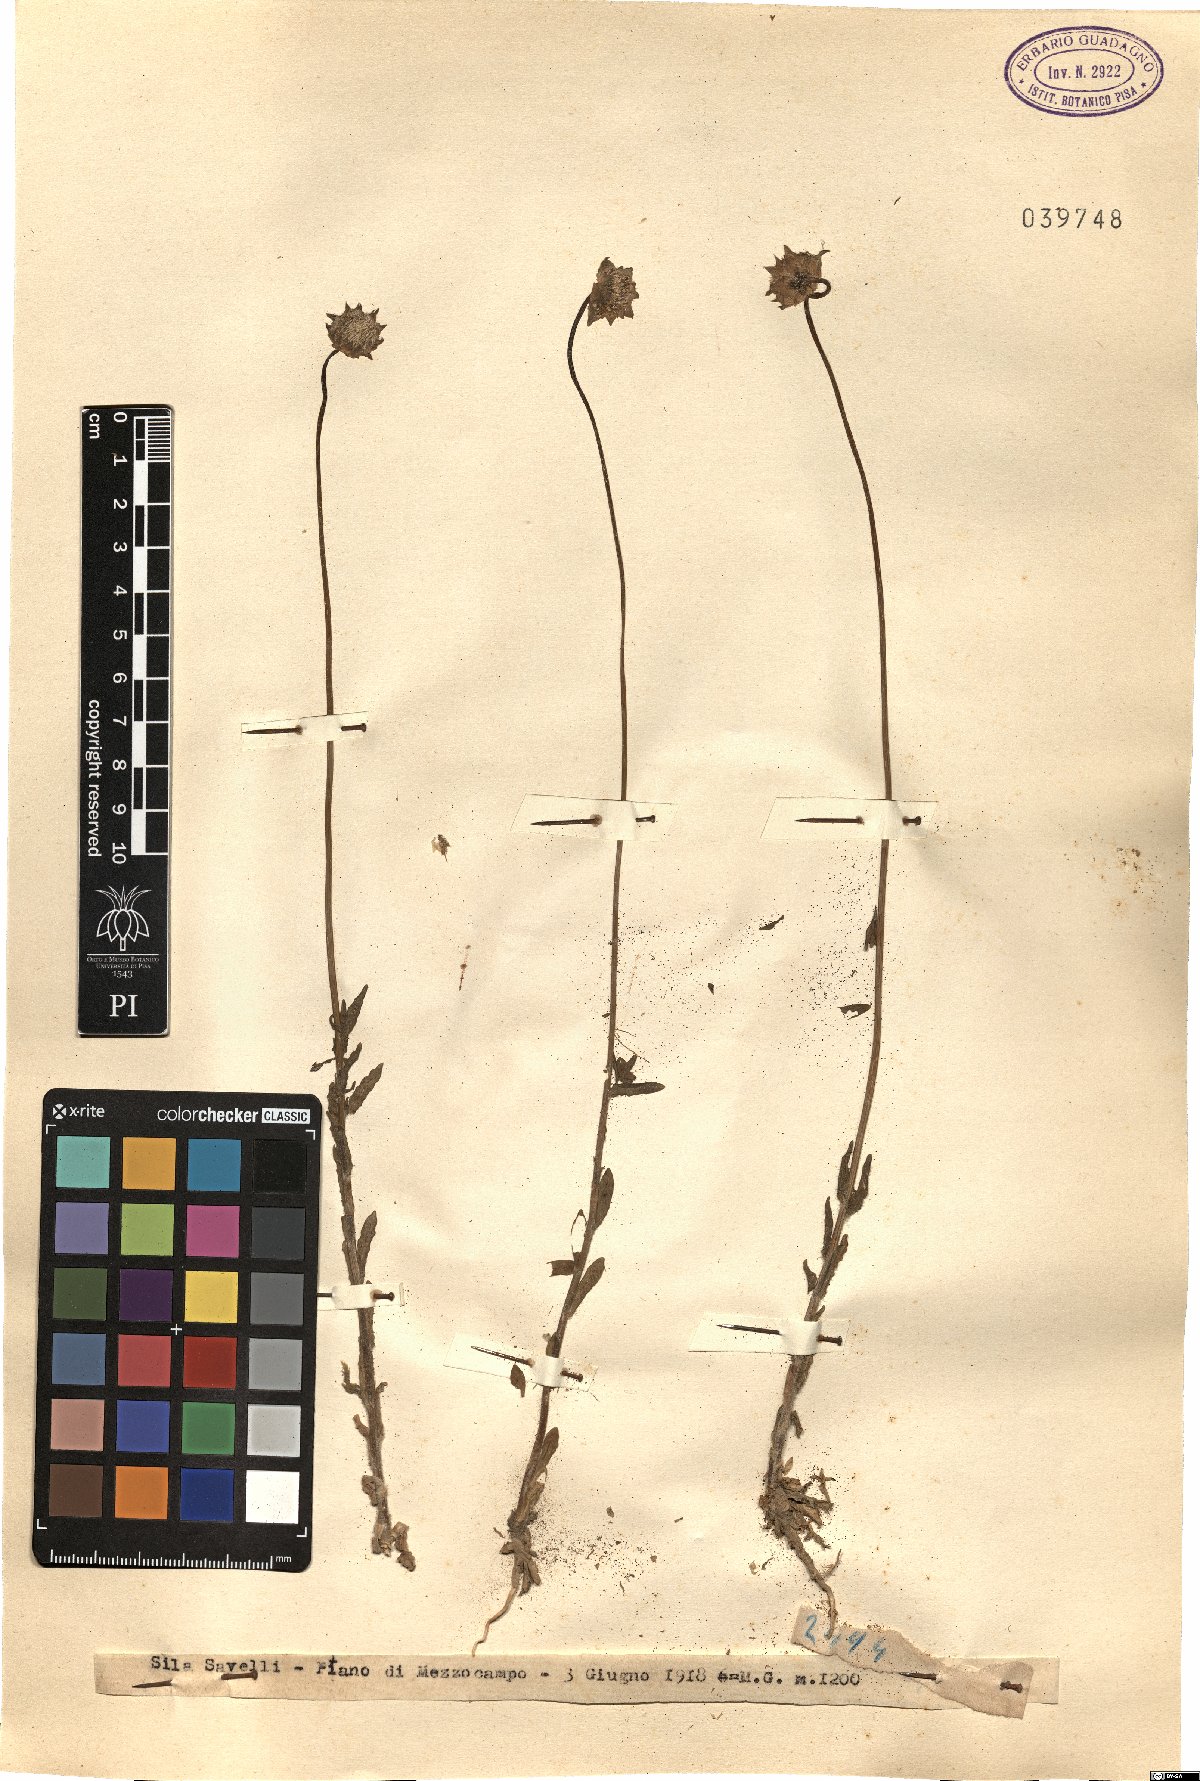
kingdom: Plantae
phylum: Tracheophyta
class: Magnoliopsida
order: Asterales
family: Campanulaceae
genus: Jasione
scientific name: Jasione
